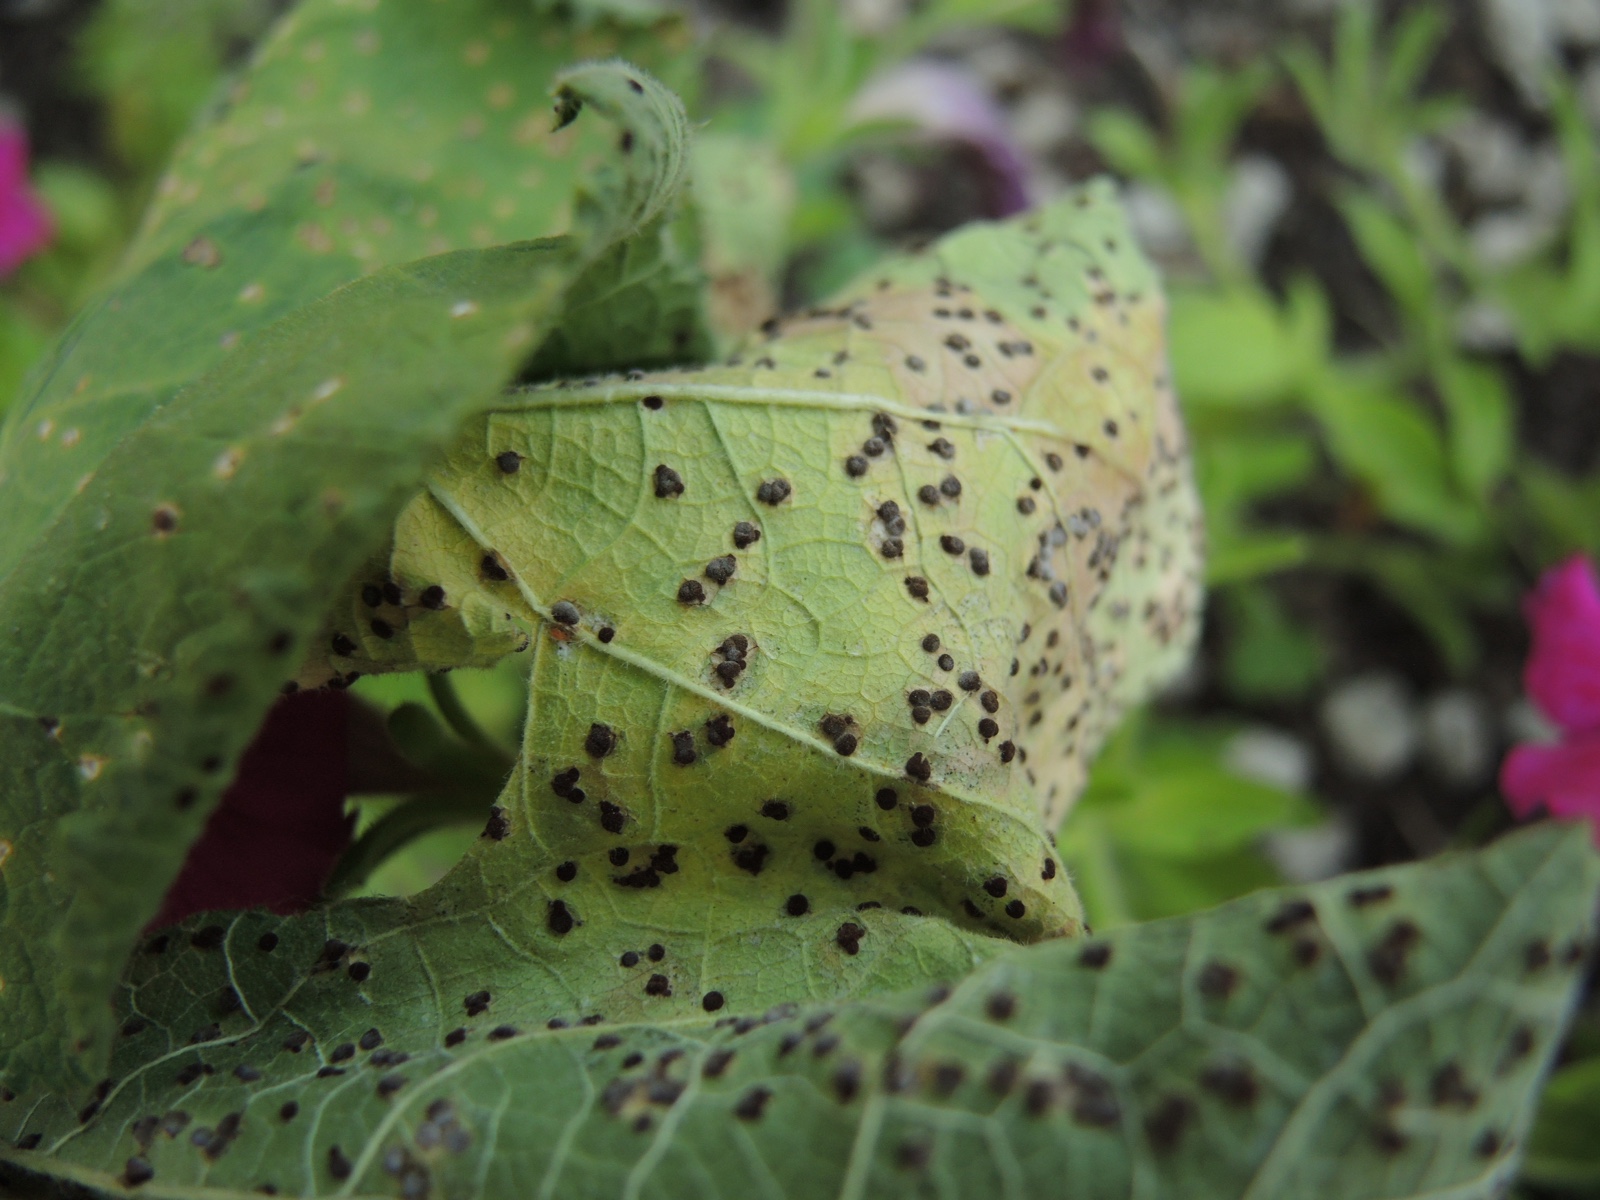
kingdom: Fungi
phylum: Basidiomycota
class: Pucciniomycetes
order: Pucciniales
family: Pucciniaceae
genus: Puccinia
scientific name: Puccinia malvacearum
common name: stokrose-tvecellerust
